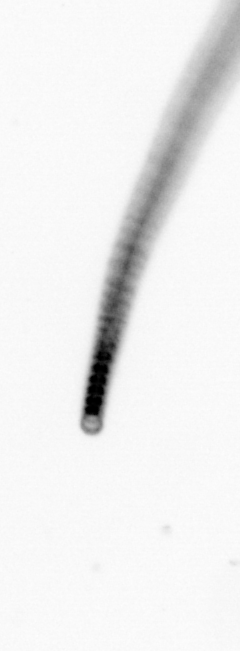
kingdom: Chromista
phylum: Ochrophyta
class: Bacillariophyceae
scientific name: Bacillariophyceae
